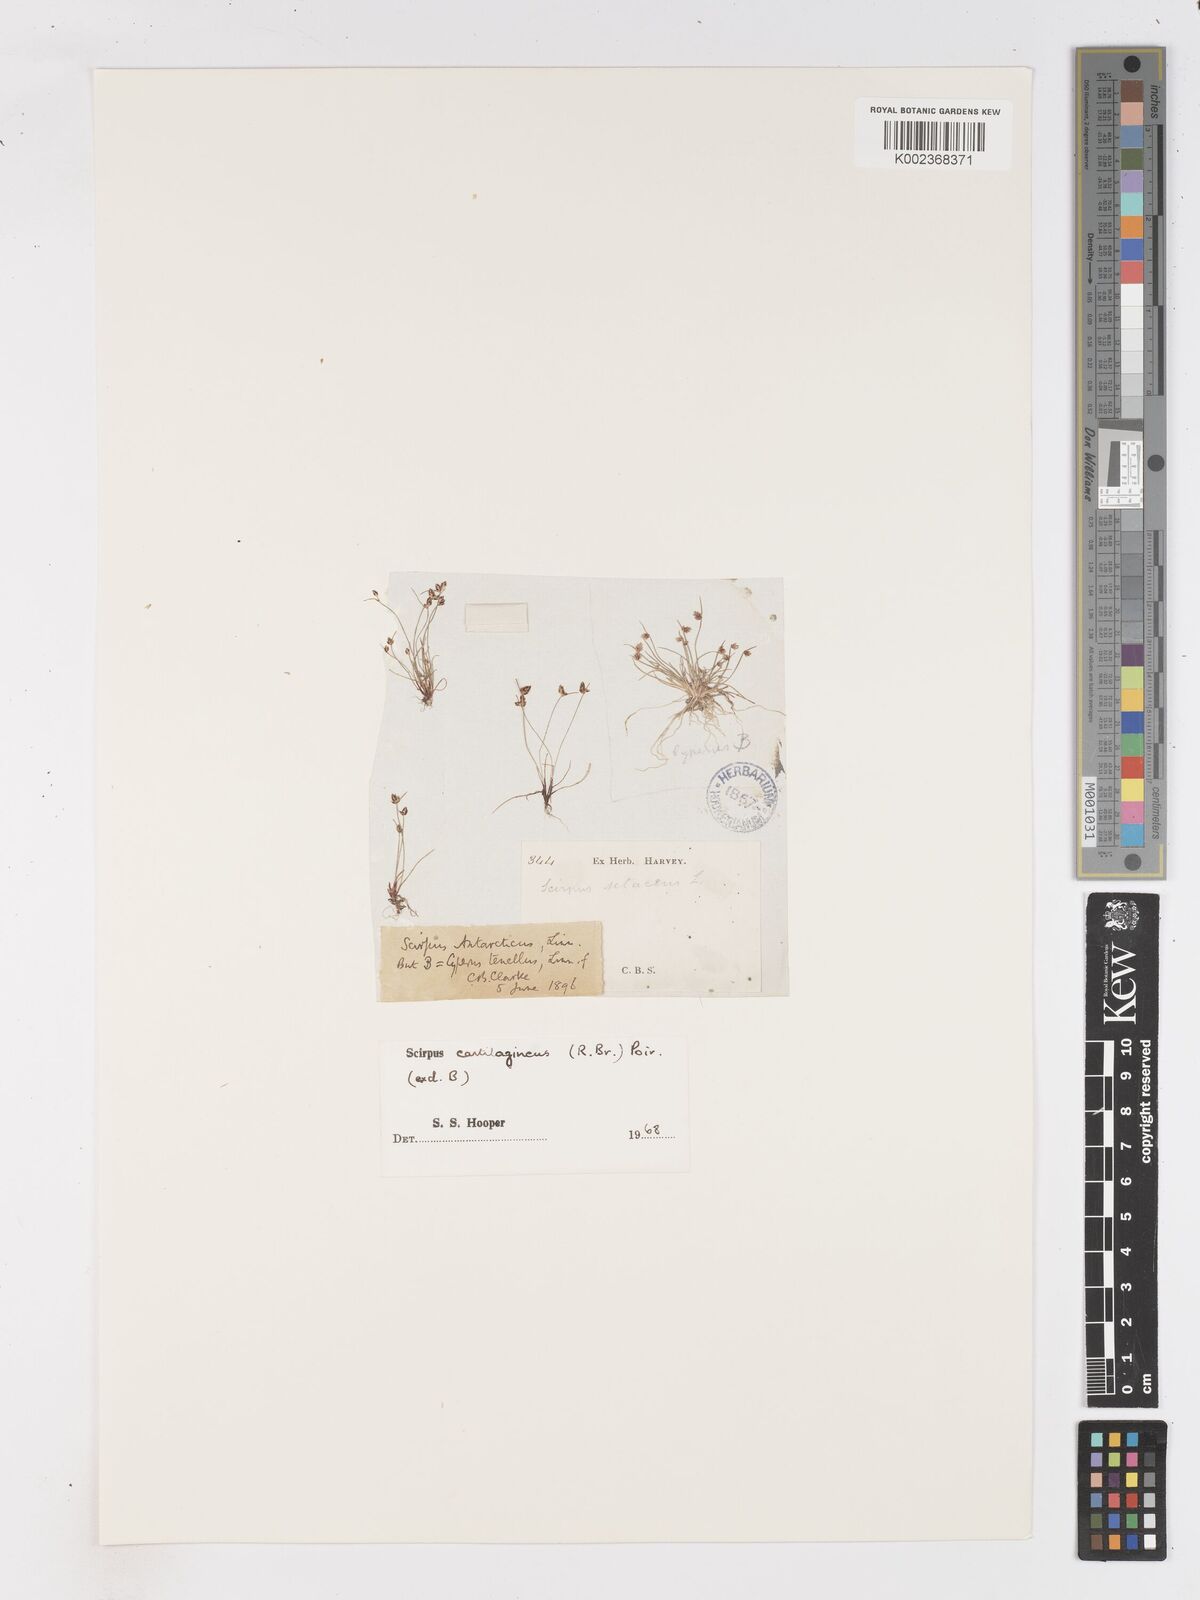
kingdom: Plantae
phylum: Tracheophyta
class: Liliopsida
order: Poales
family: Cyperaceae
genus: Isolepis
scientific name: Isolepis marginata
